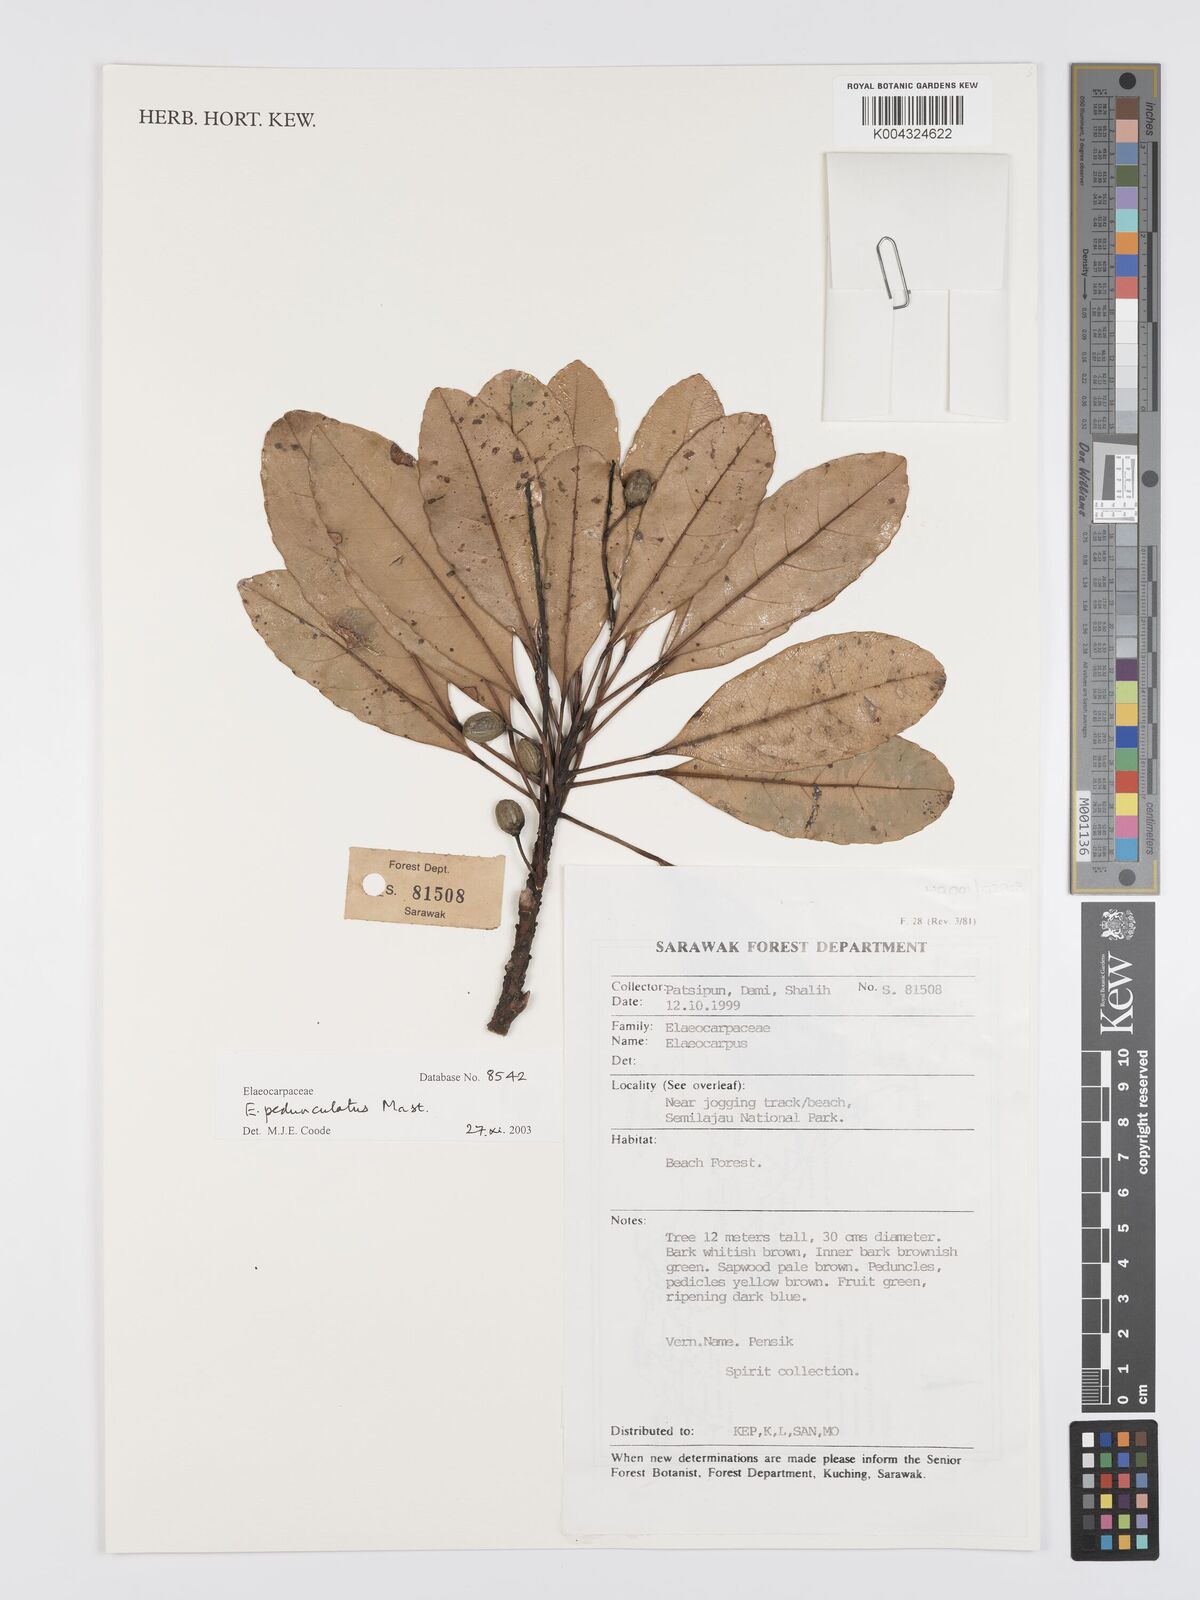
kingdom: Plantae
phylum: Tracheophyta
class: Magnoliopsida
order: Oxalidales
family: Elaeocarpaceae
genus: Elaeocarpus
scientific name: Elaeocarpus pedunculatus
